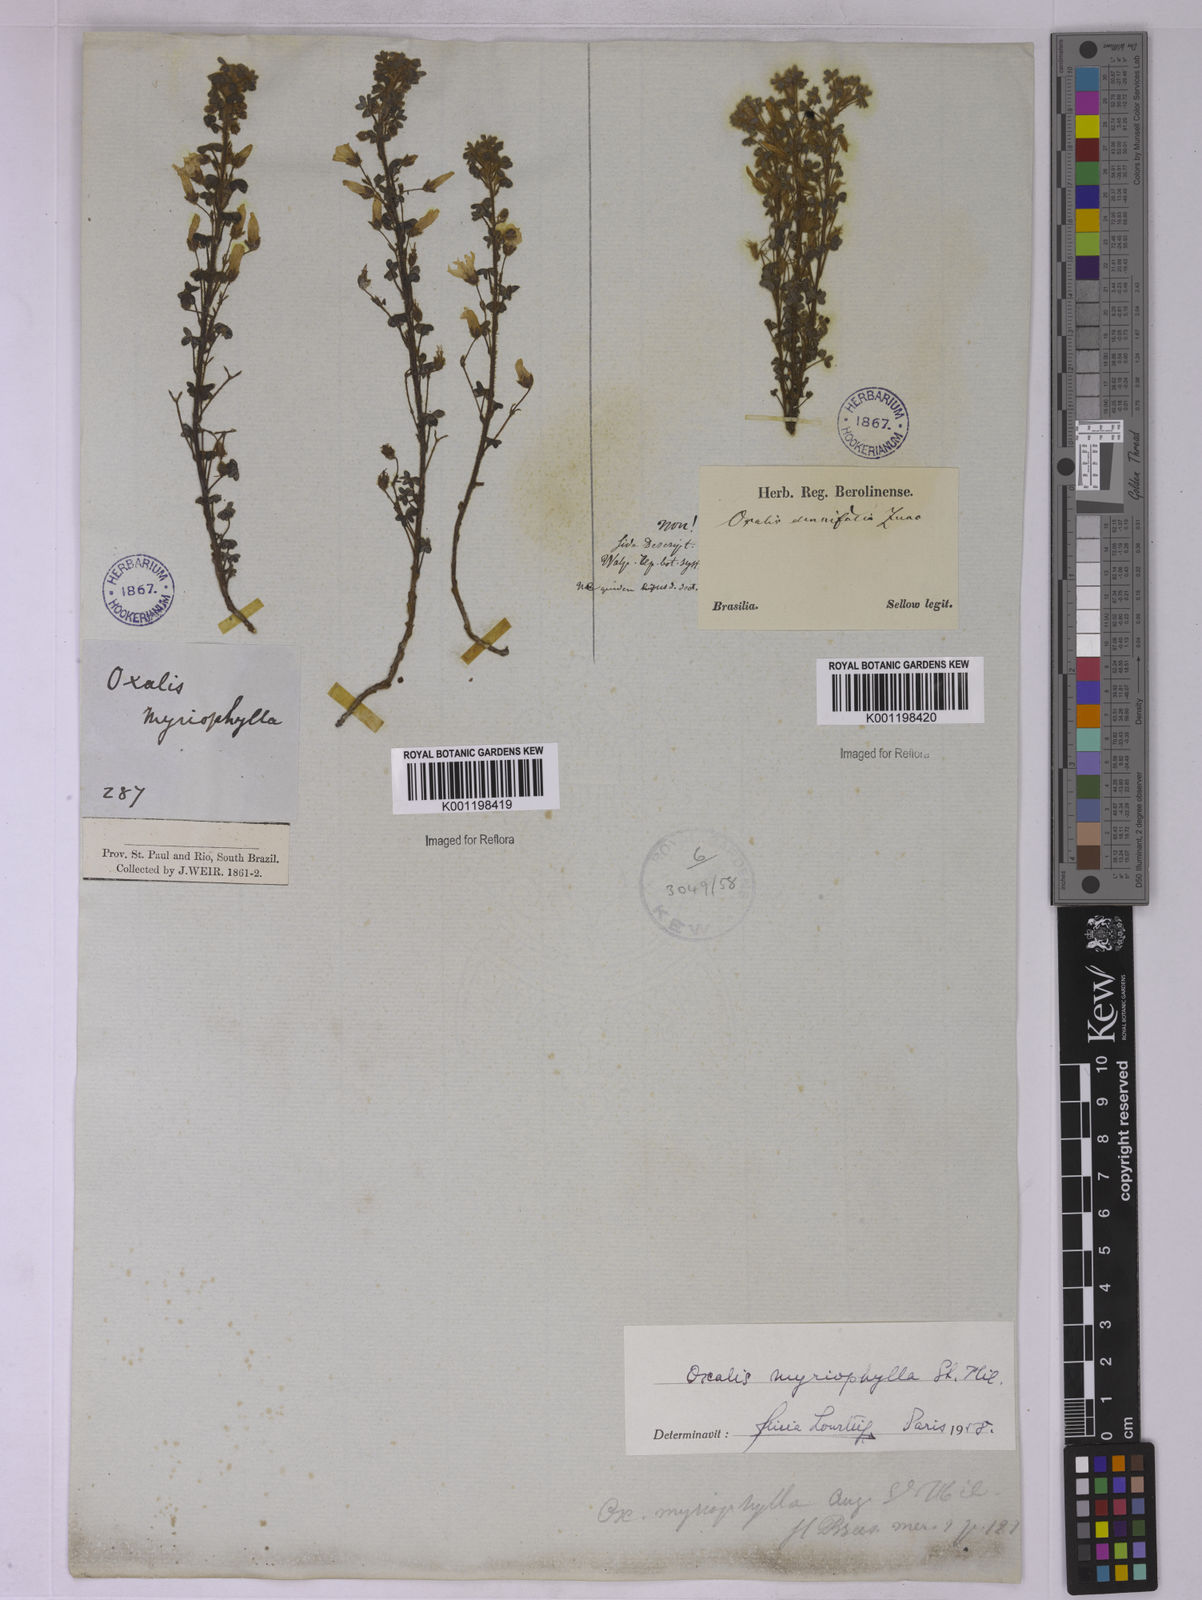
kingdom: Plantae
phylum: Tracheophyta
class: Magnoliopsida
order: Oxalidales
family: Oxalidaceae
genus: Oxalis
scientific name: Oxalis myriophylla
